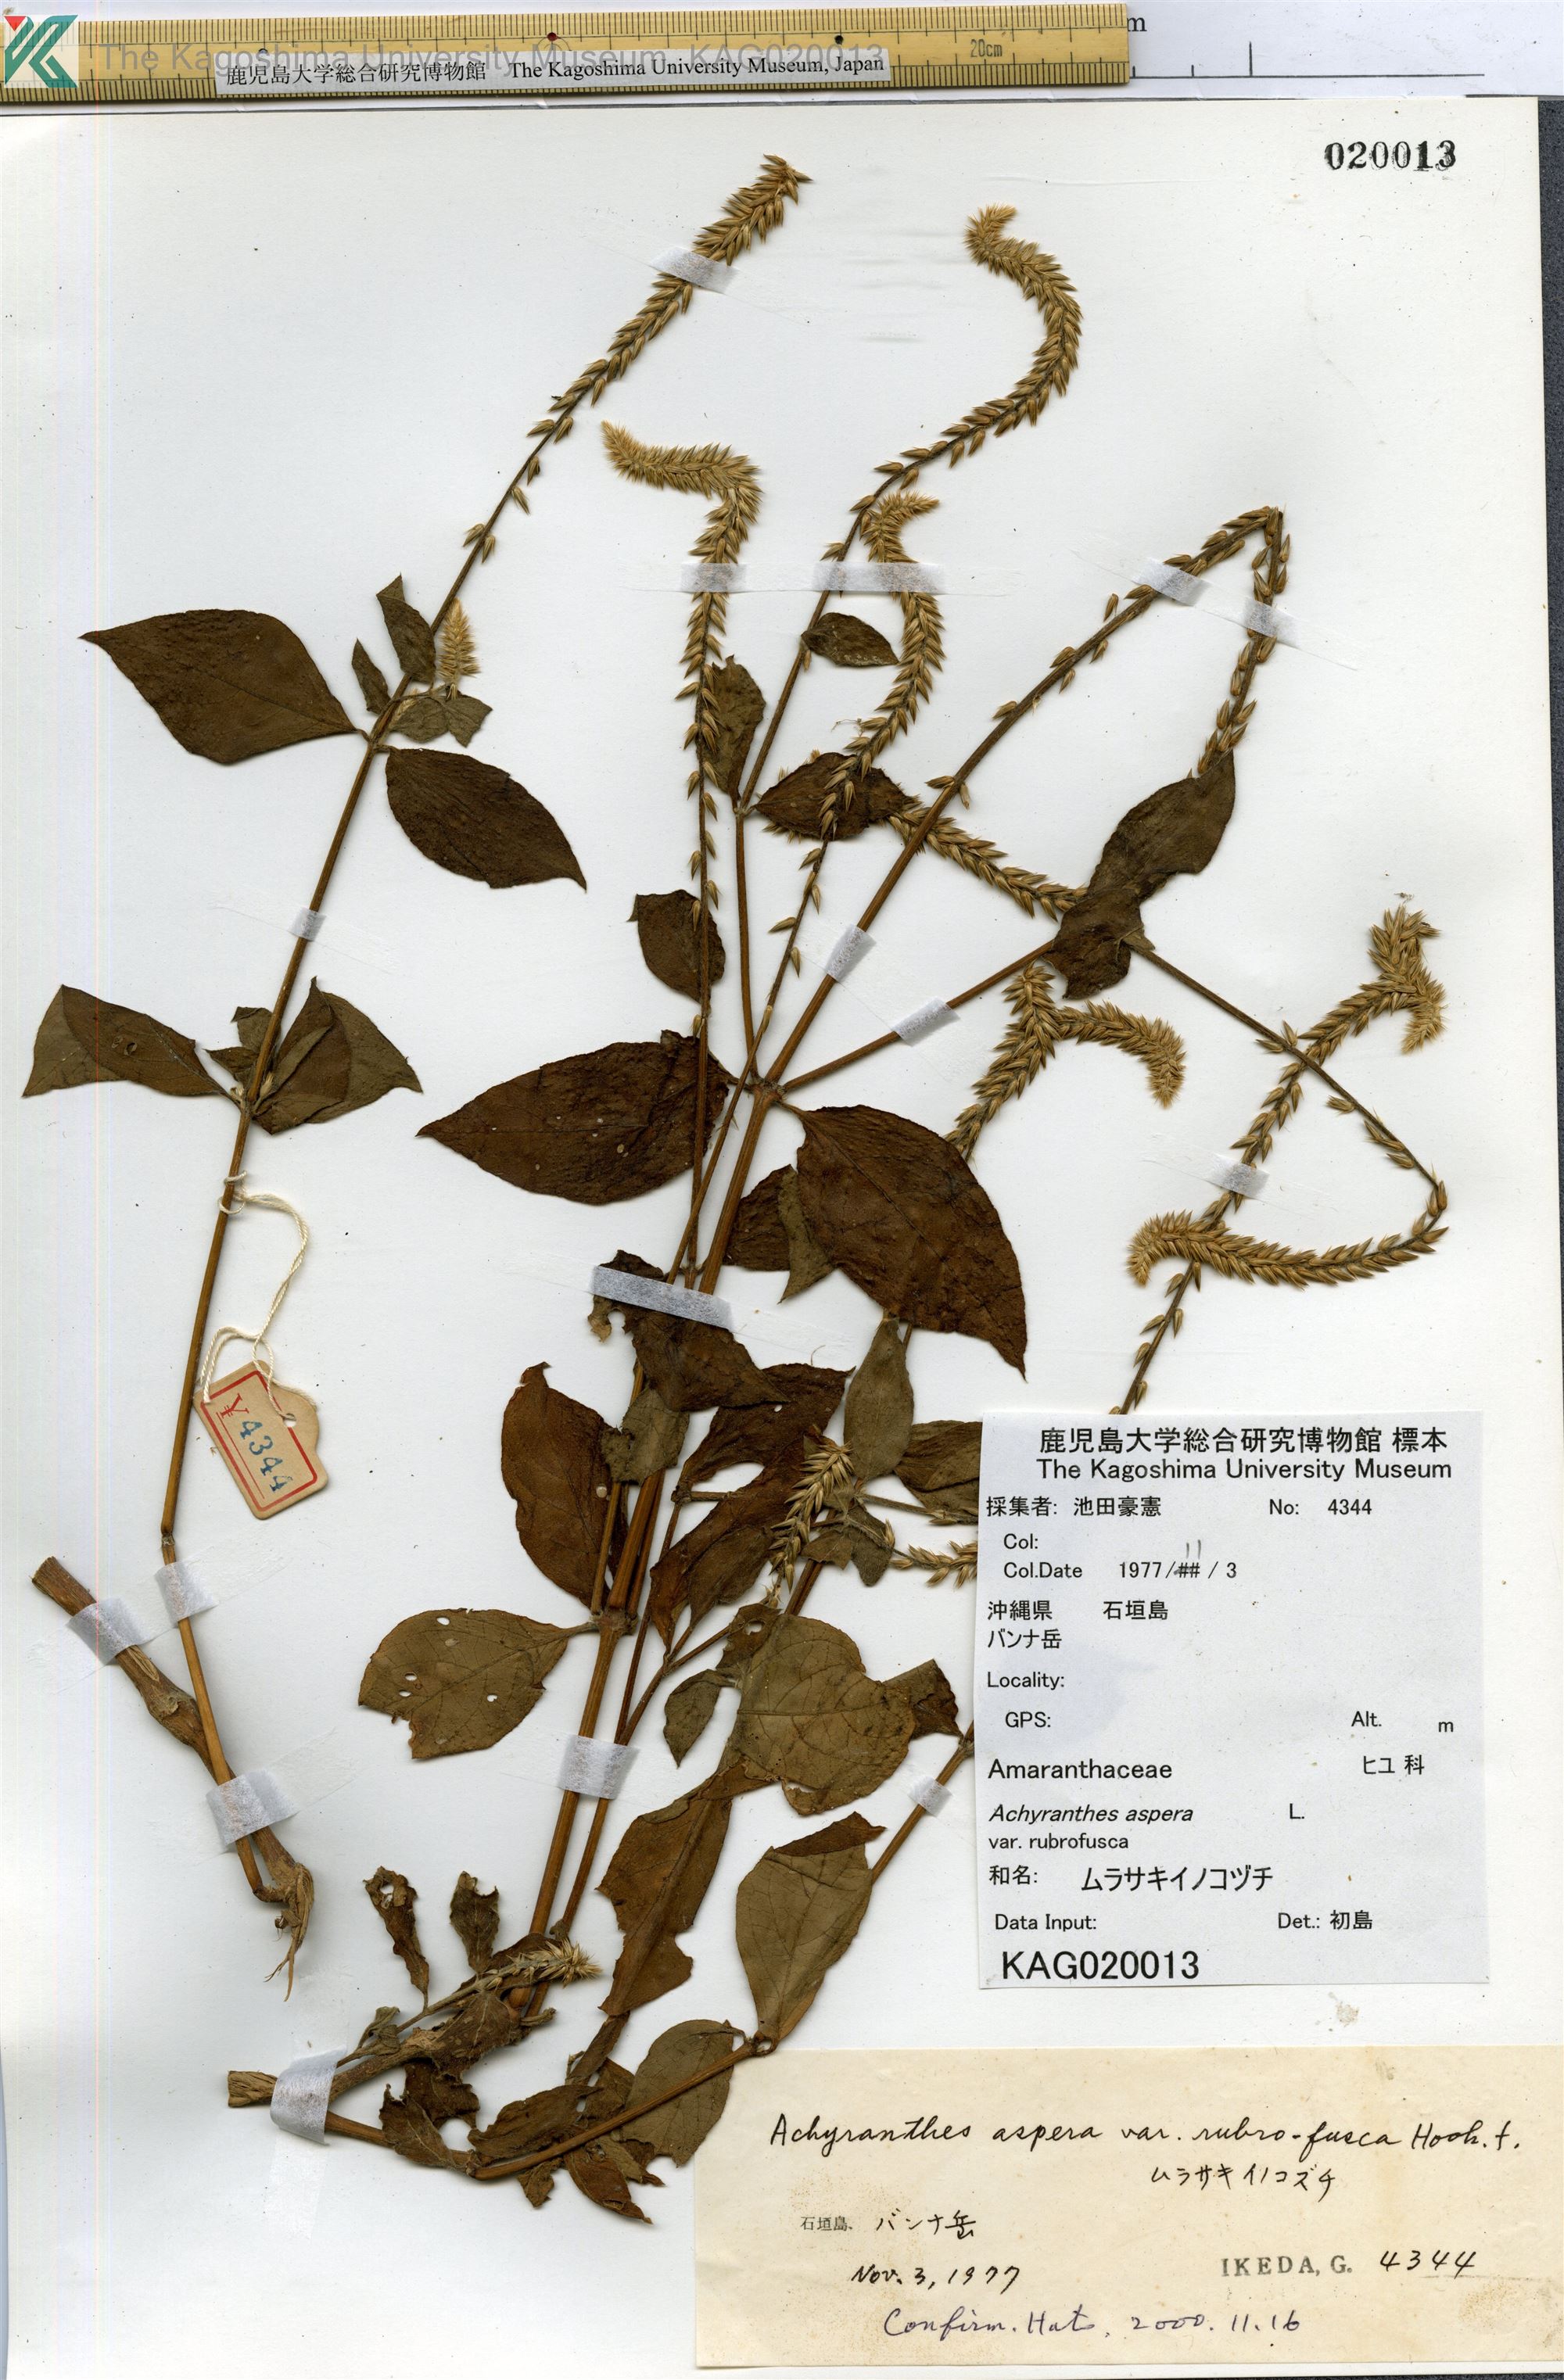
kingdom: Plantae
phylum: Tracheophyta
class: Magnoliopsida
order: Caryophyllales
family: Amaranthaceae
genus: Achyranthes
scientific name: Achyranthes aspera
